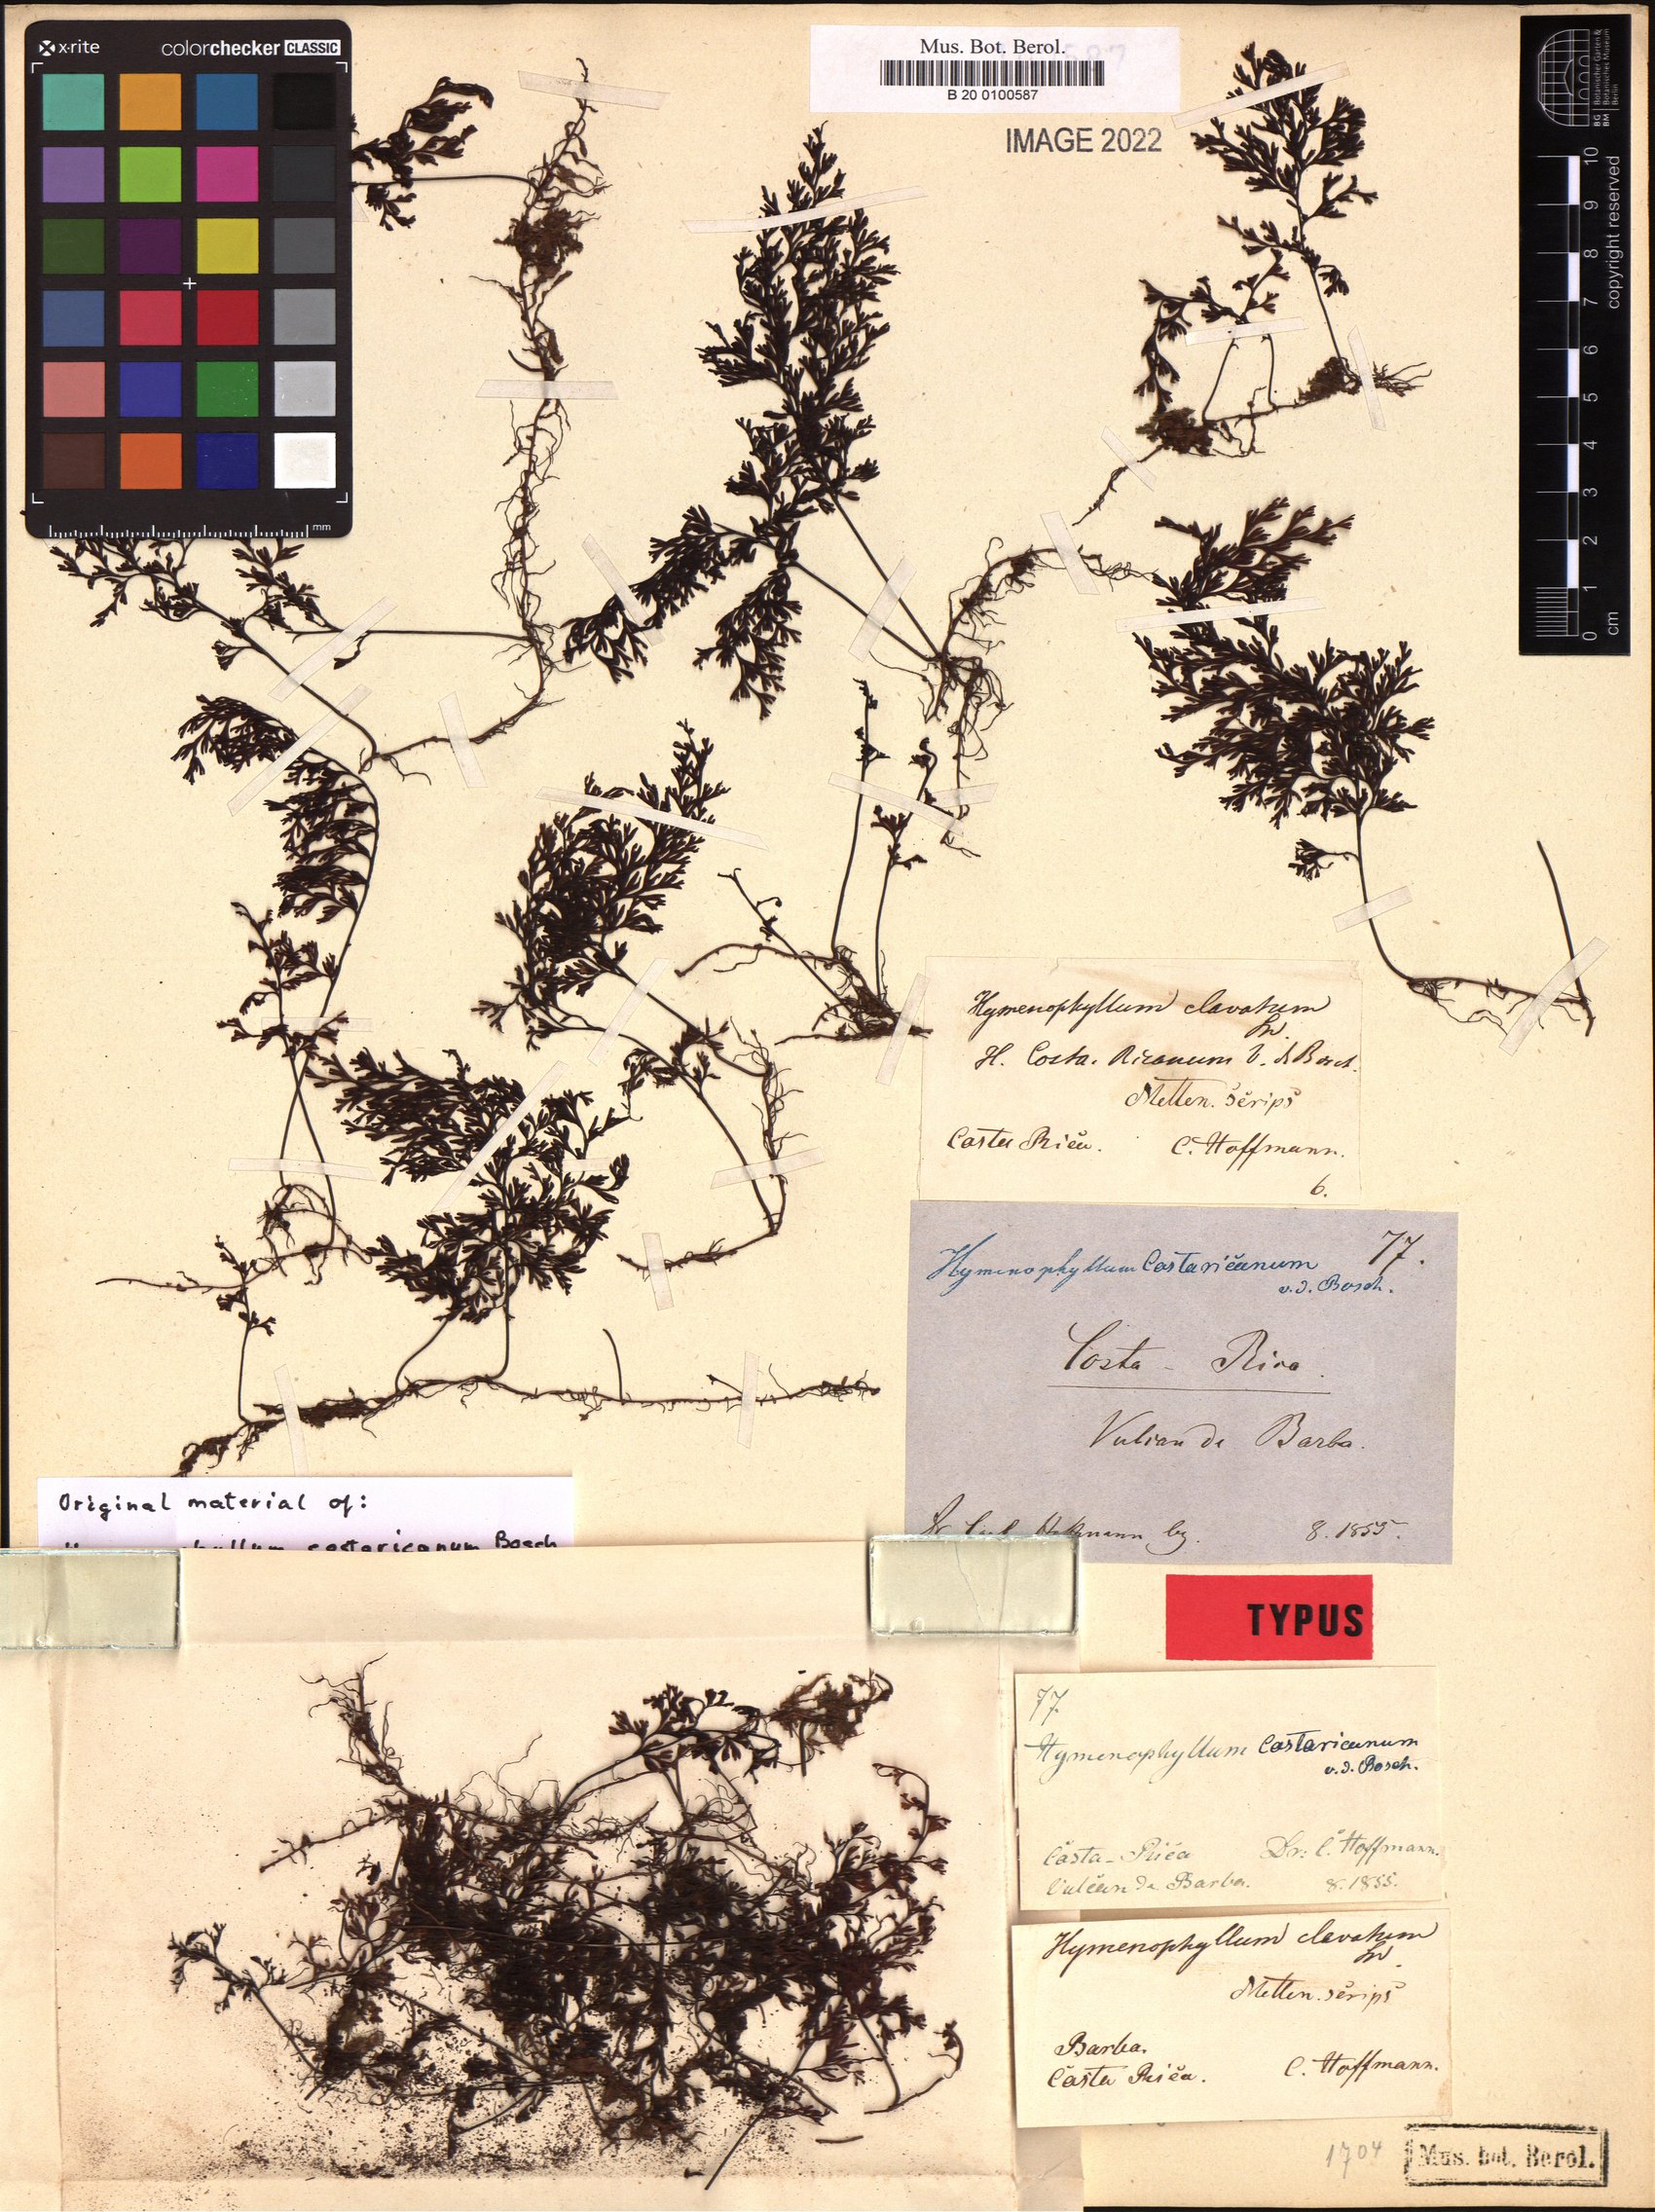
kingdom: Plantae
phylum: Tracheophyta
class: Polypodiopsida
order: Hymenophyllales
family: Hymenophyllaceae
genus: Hymenophyllum
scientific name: Hymenophyllum polyanthos
